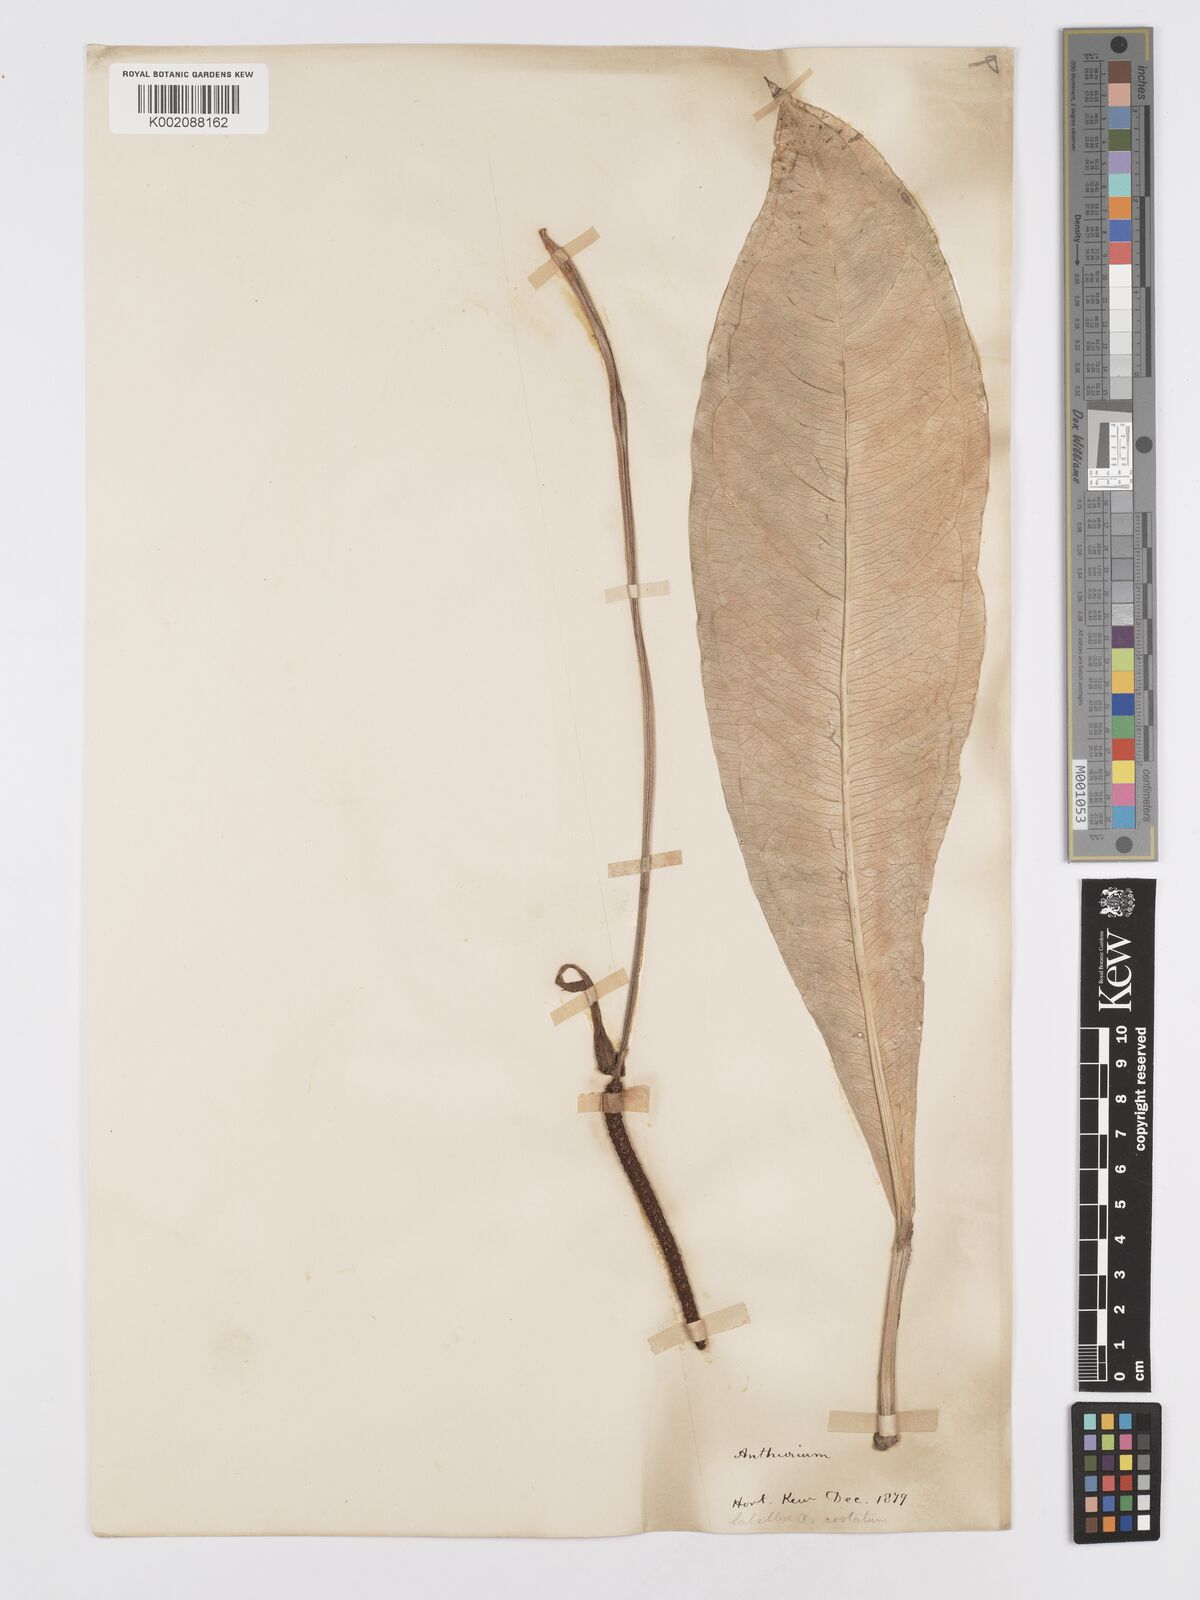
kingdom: Plantae
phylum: Tracheophyta
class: Liliopsida
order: Alismatales
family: Araceae
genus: Anthurium
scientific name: Anthurium
